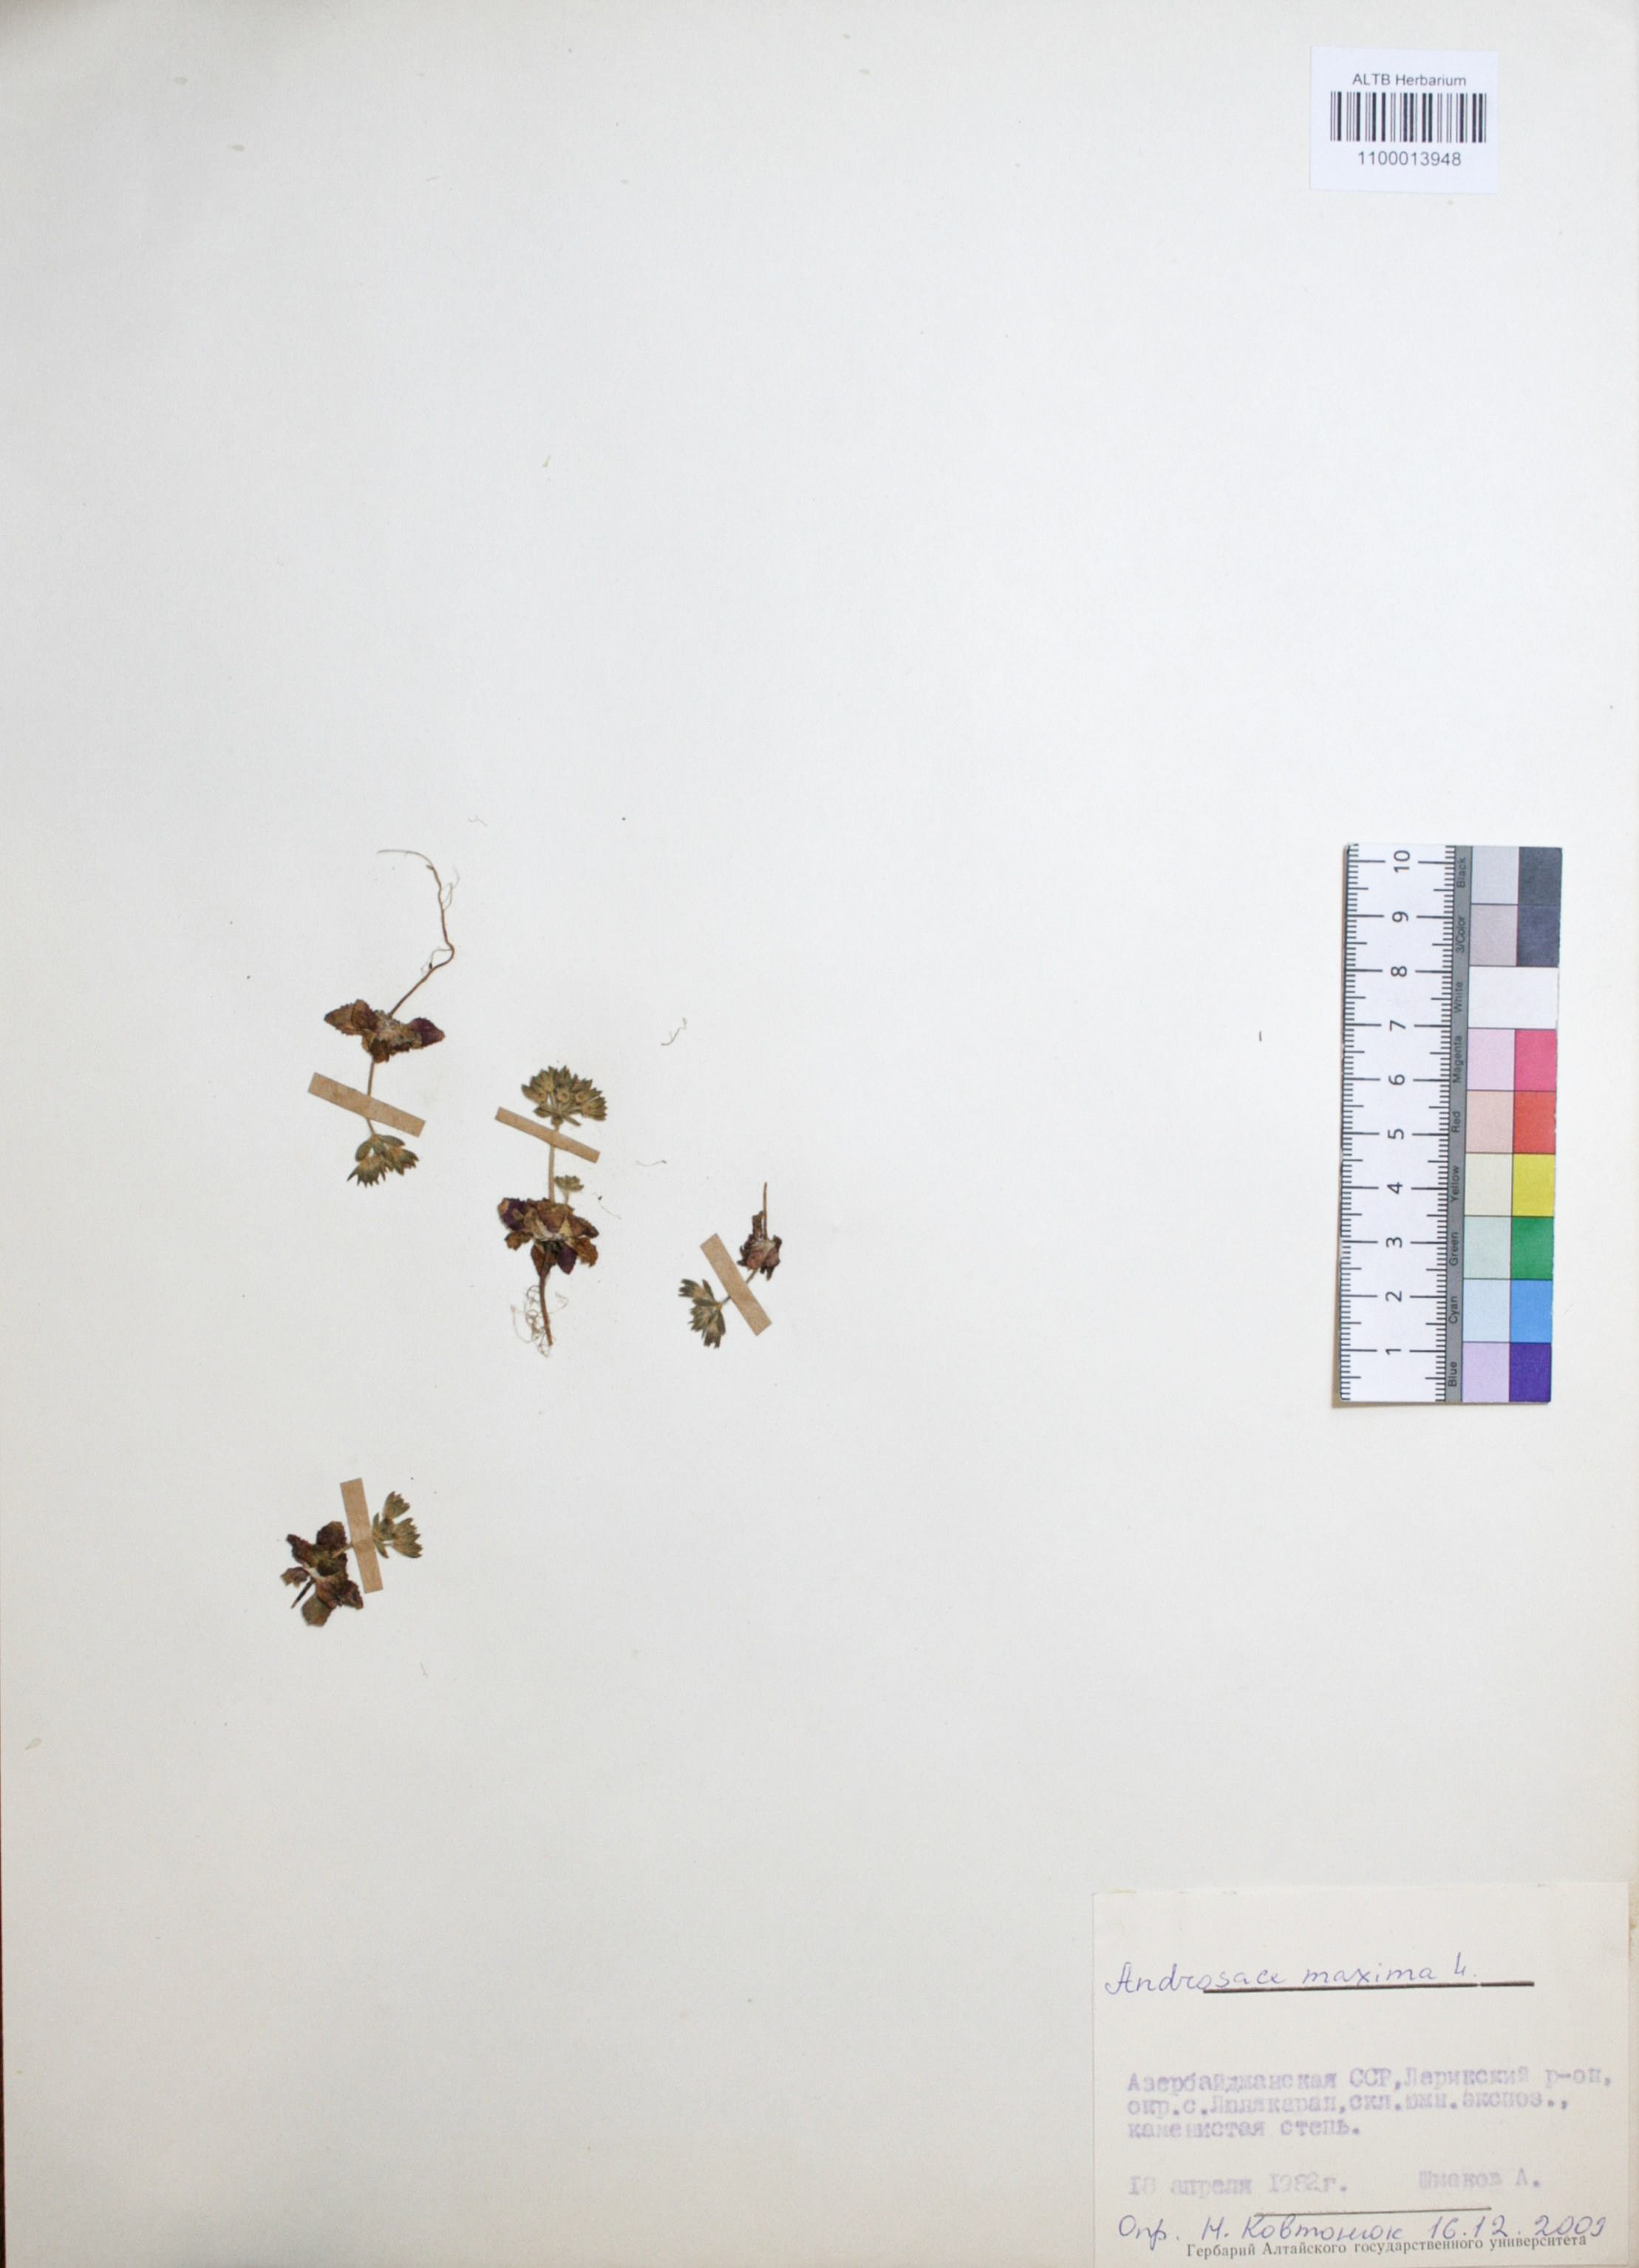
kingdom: Plantae
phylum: Tracheophyta
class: Magnoliopsida
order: Ericales
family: Primulaceae
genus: Androsace
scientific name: Androsace maxima
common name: Annual androsace
